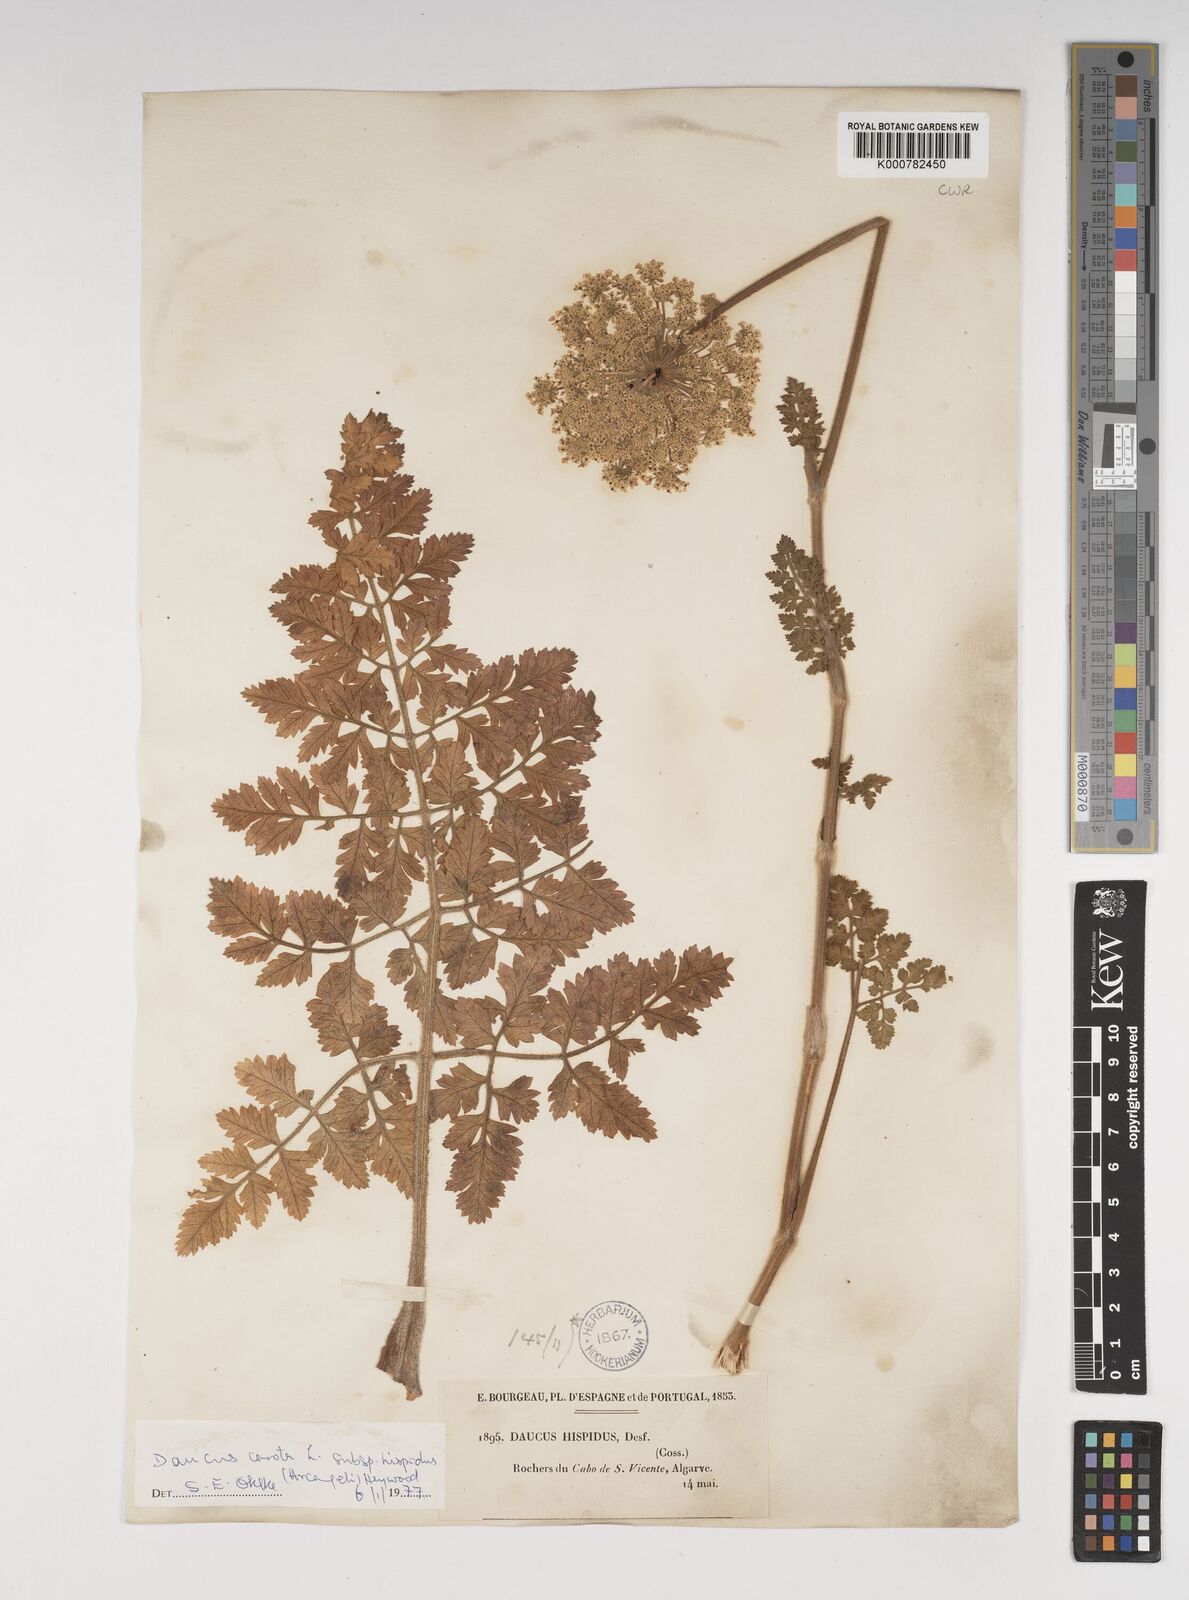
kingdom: Plantae
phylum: Tracheophyta
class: Magnoliopsida
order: Apiales
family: Apiaceae
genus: Daucus
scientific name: Daucus carota
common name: Wild carrot
